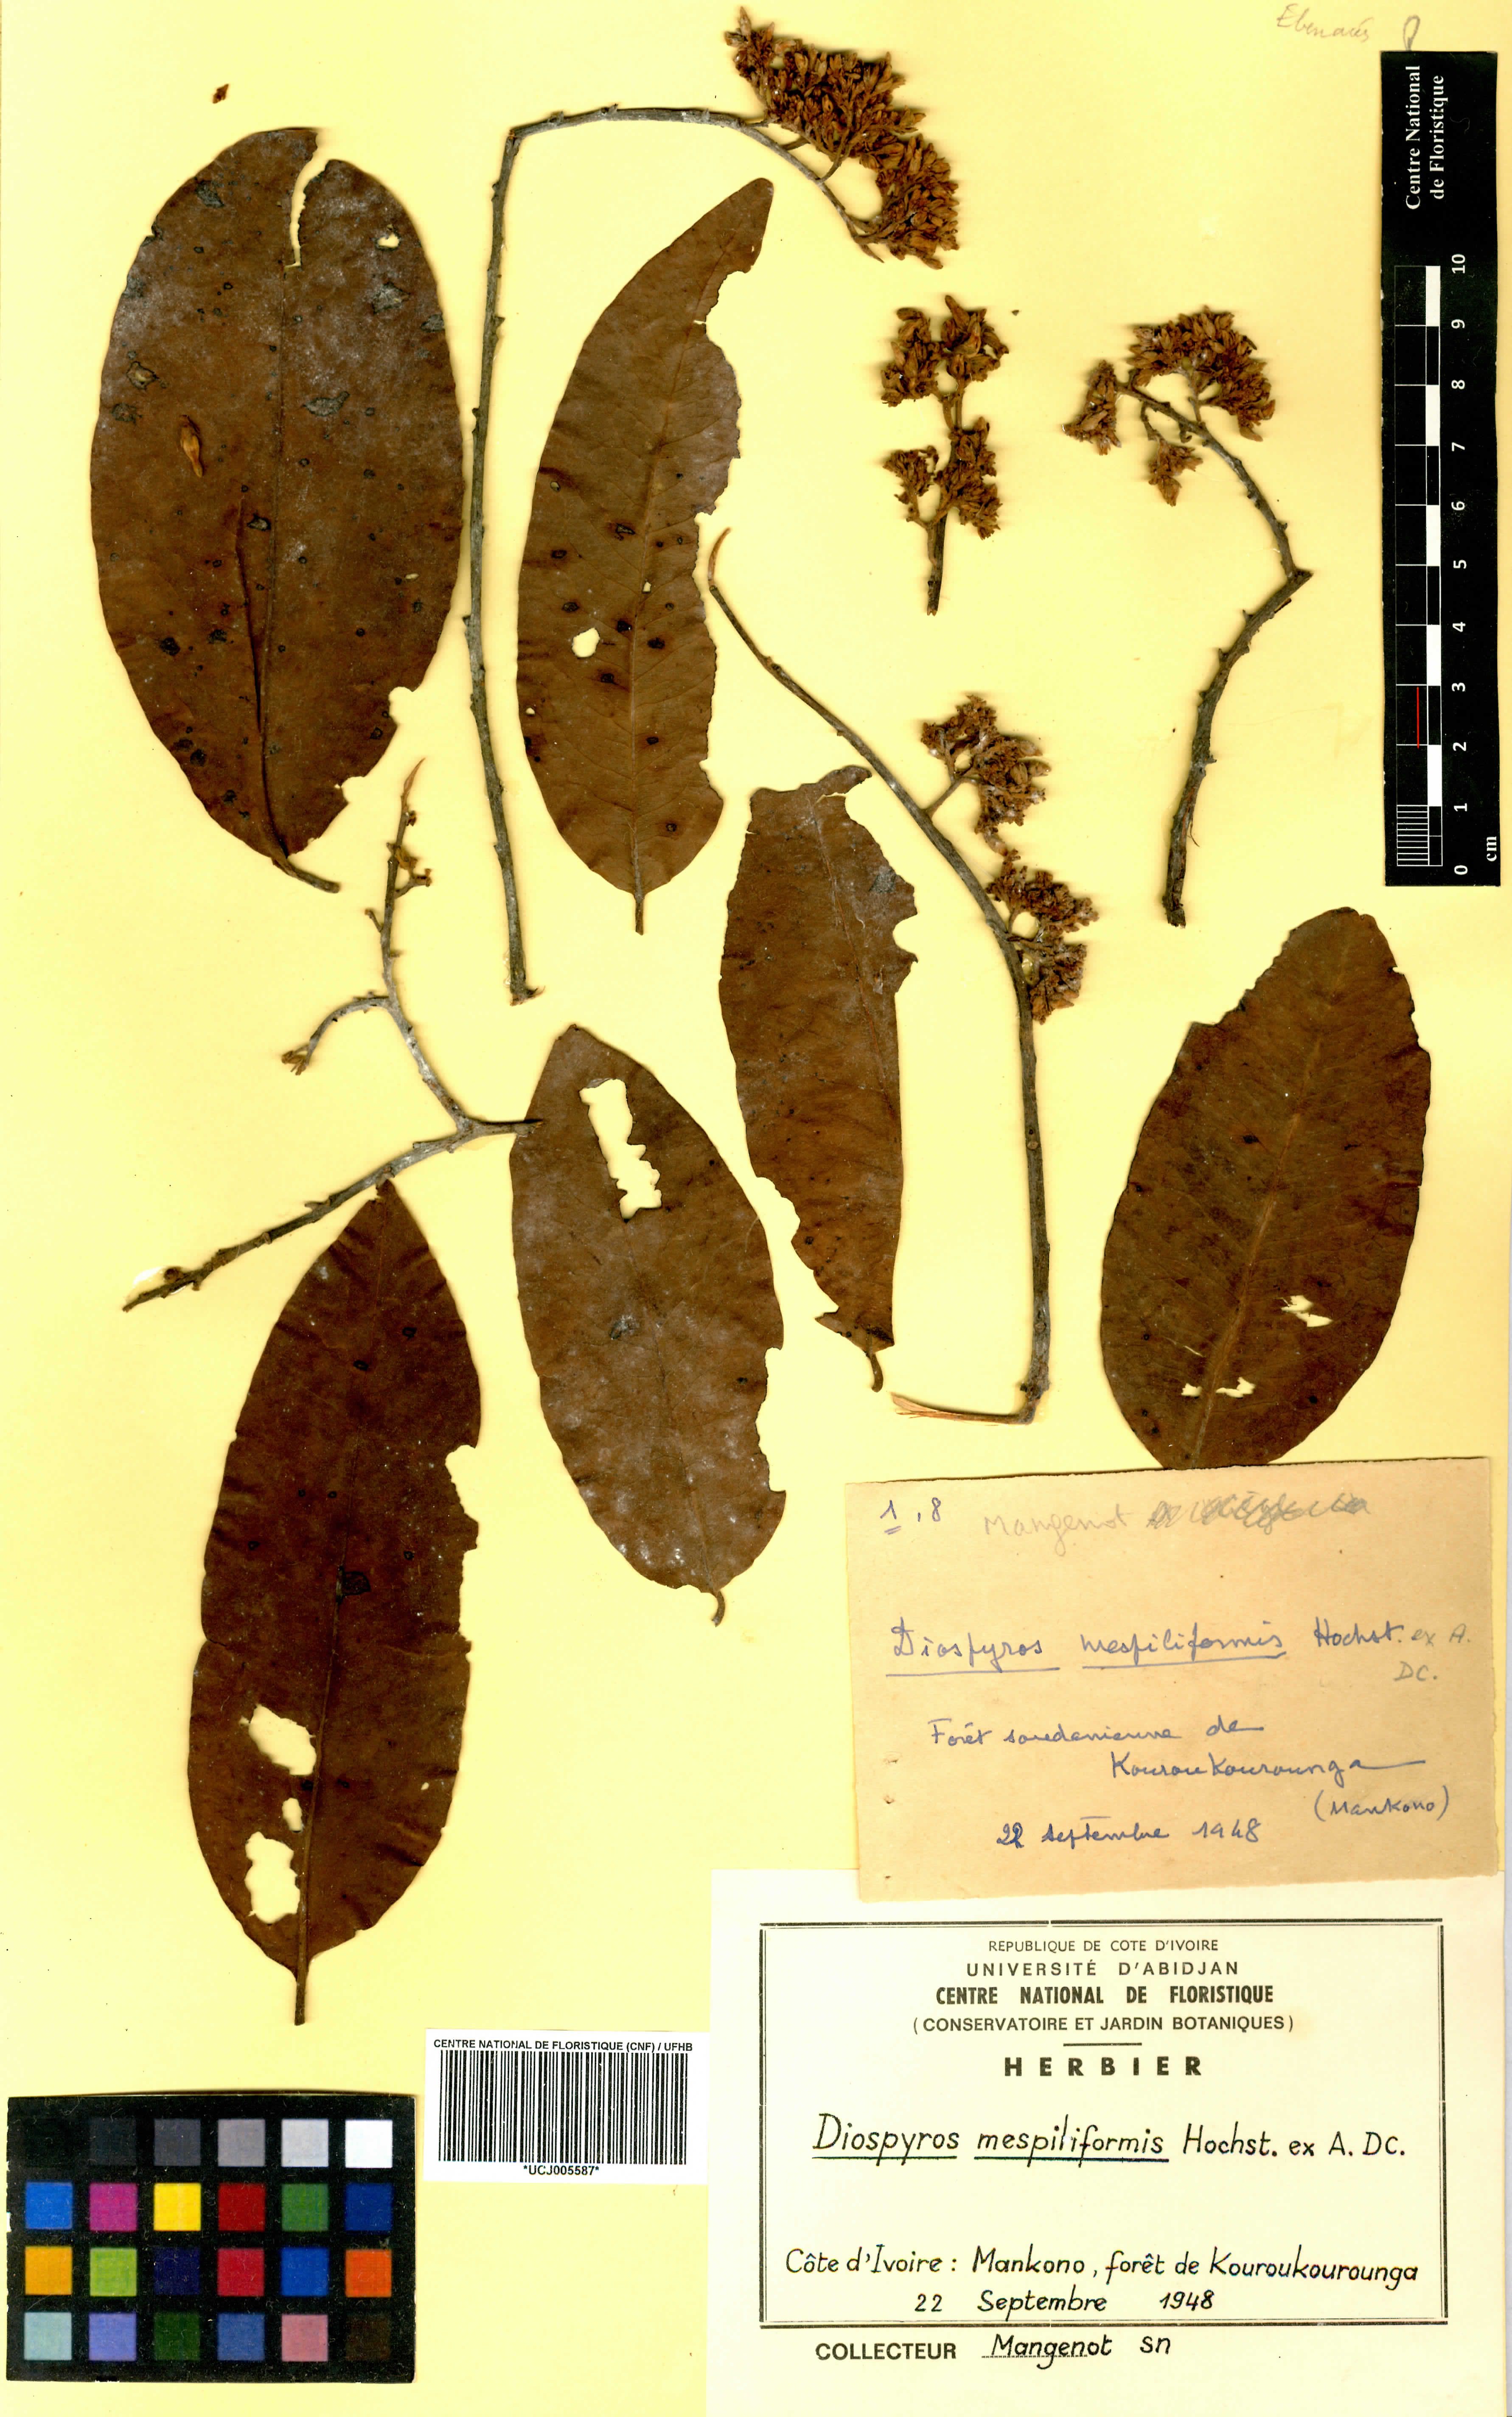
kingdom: Plantae
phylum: Tracheophyta
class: Magnoliopsida
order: Ericales
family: Ebenaceae
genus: Diospyros
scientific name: Diospyros mespiliformis
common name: Ebony diospyros
